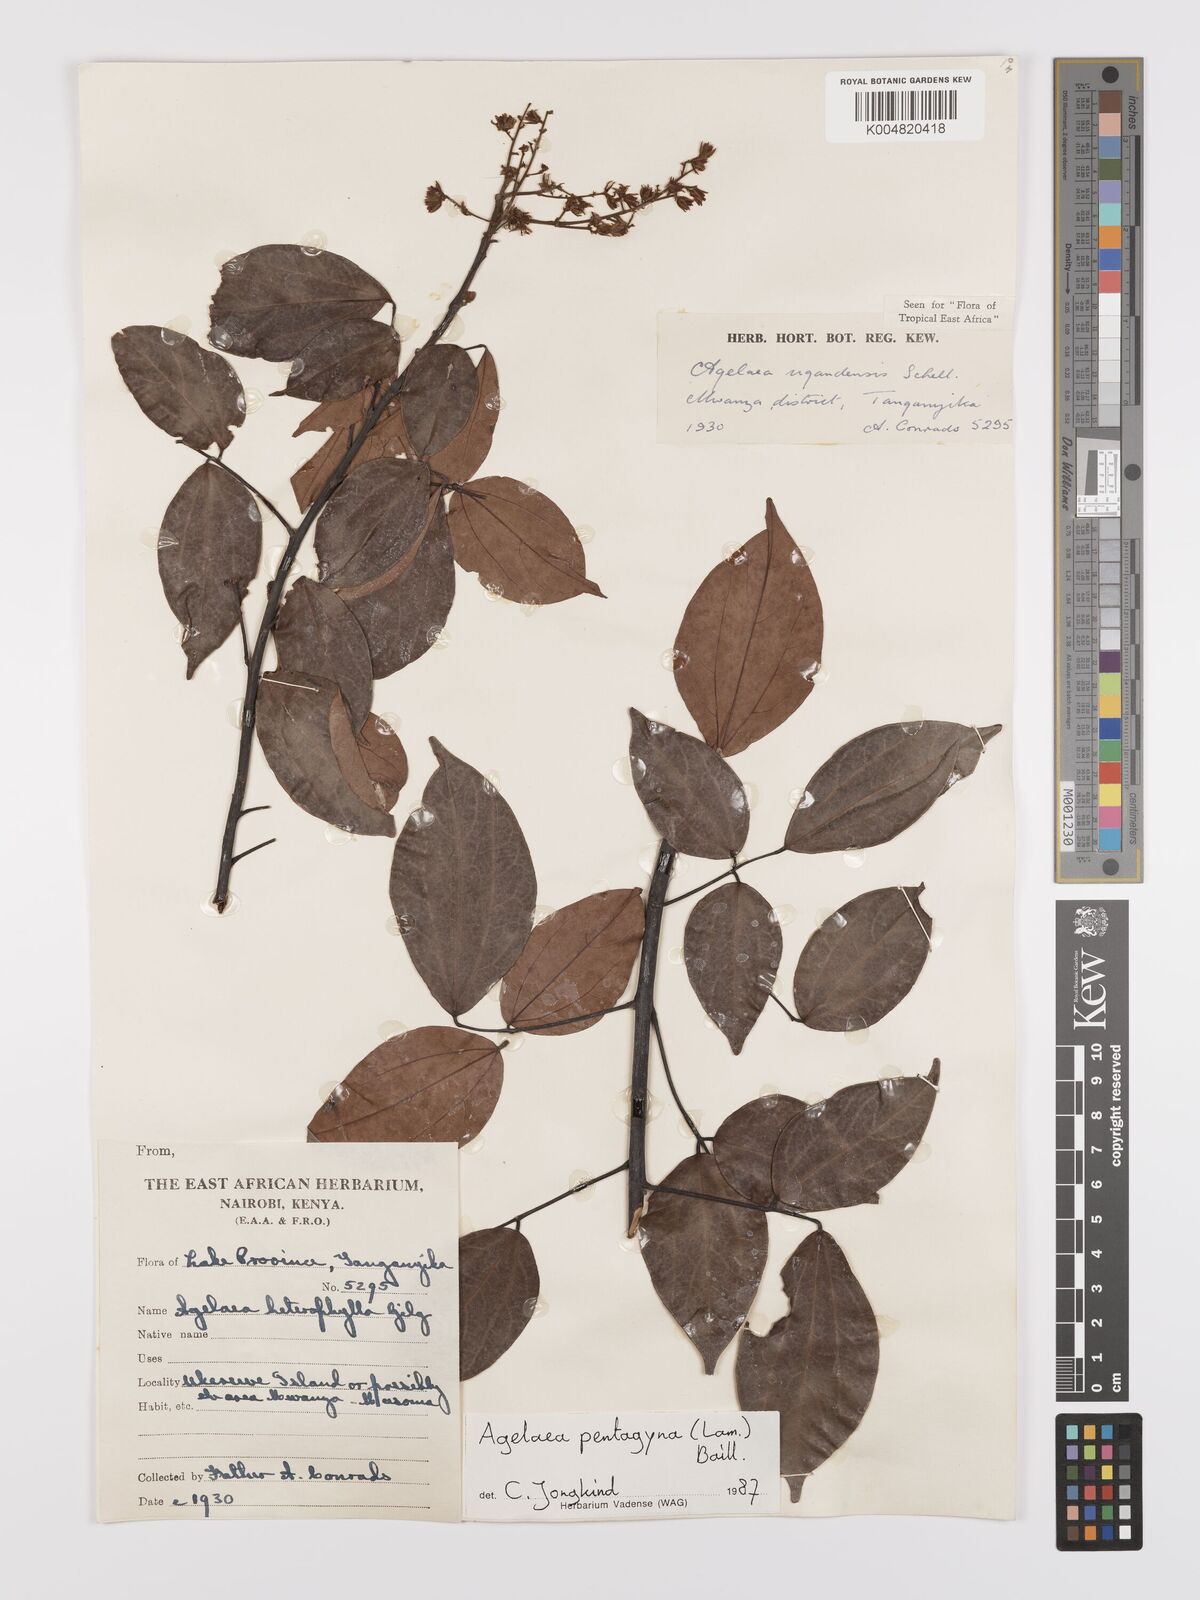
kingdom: Plantae
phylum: Tracheophyta
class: Magnoliopsida
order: Oxalidales
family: Connaraceae
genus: Agelaea
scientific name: Agelaea pentagyna
